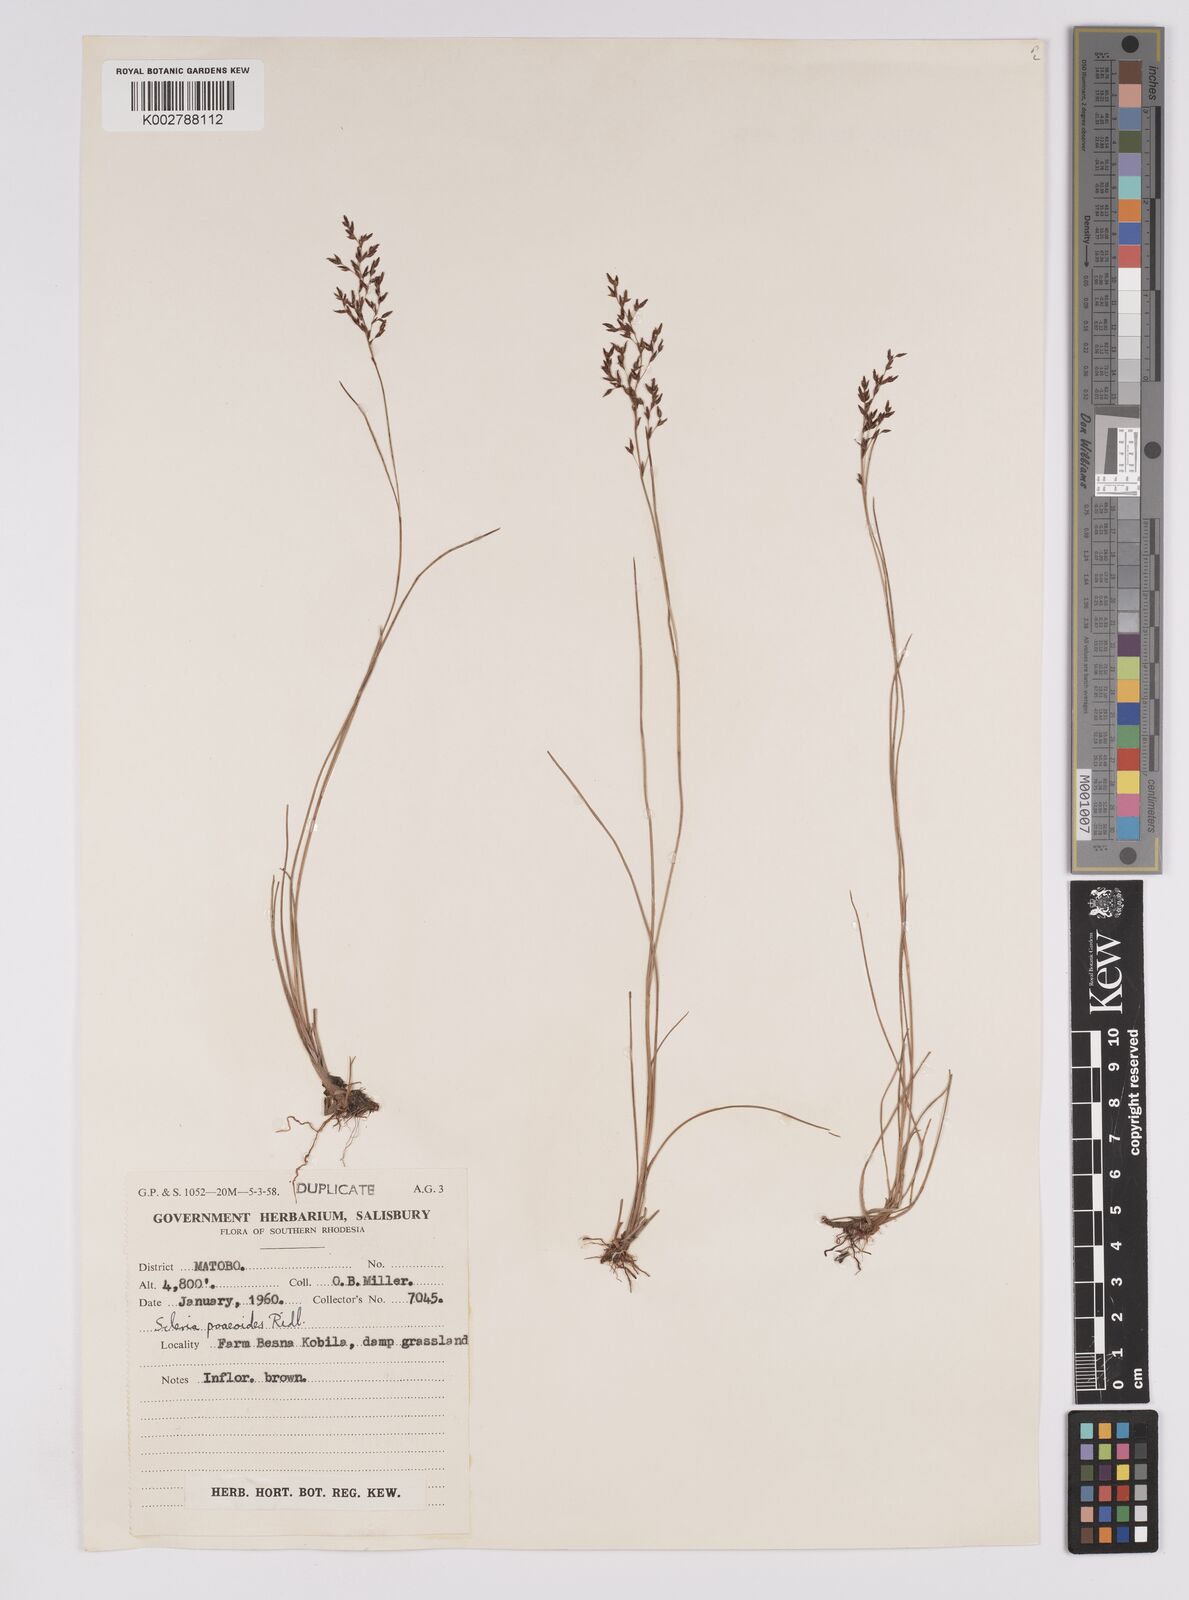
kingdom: Plantae
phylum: Tracheophyta
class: Liliopsida
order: Poales
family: Cyperaceae
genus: Scleria
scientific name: Scleria pooides
